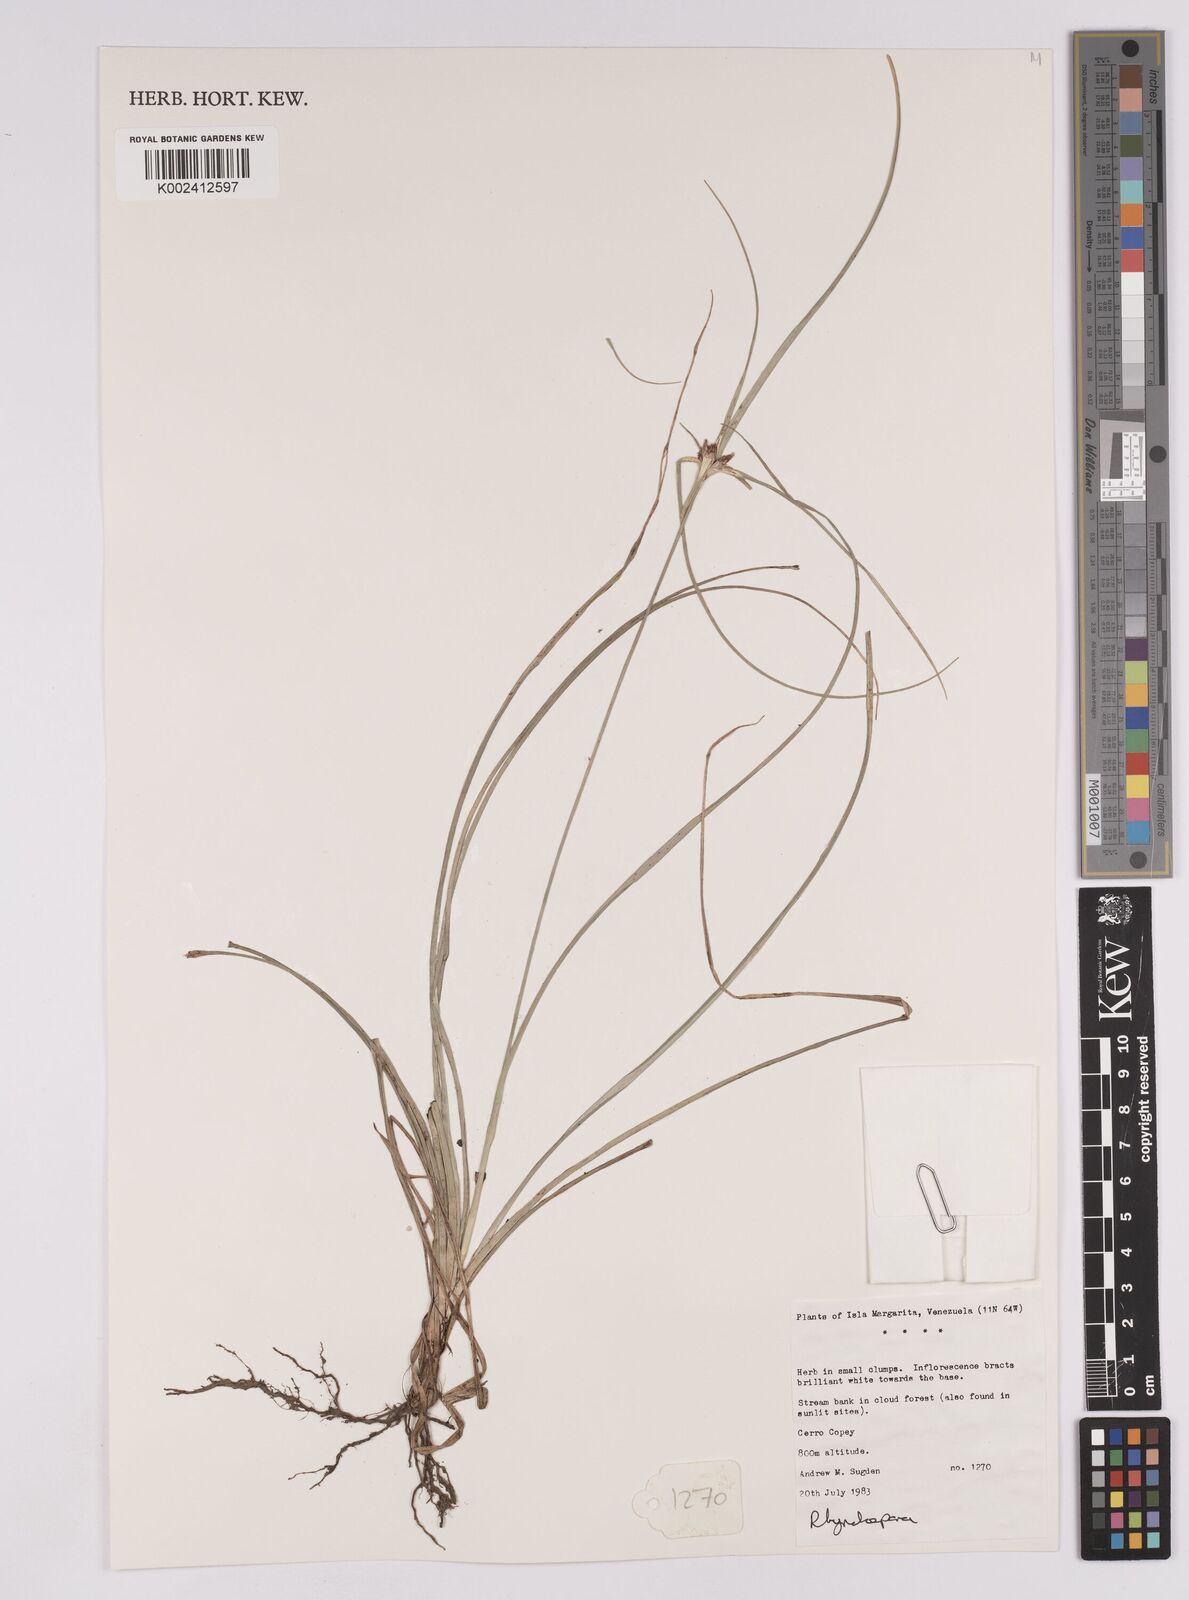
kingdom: Plantae
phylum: Tracheophyta
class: Liliopsida
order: Poales
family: Cyperaceae
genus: Rhynchospora
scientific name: Rhynchospora
